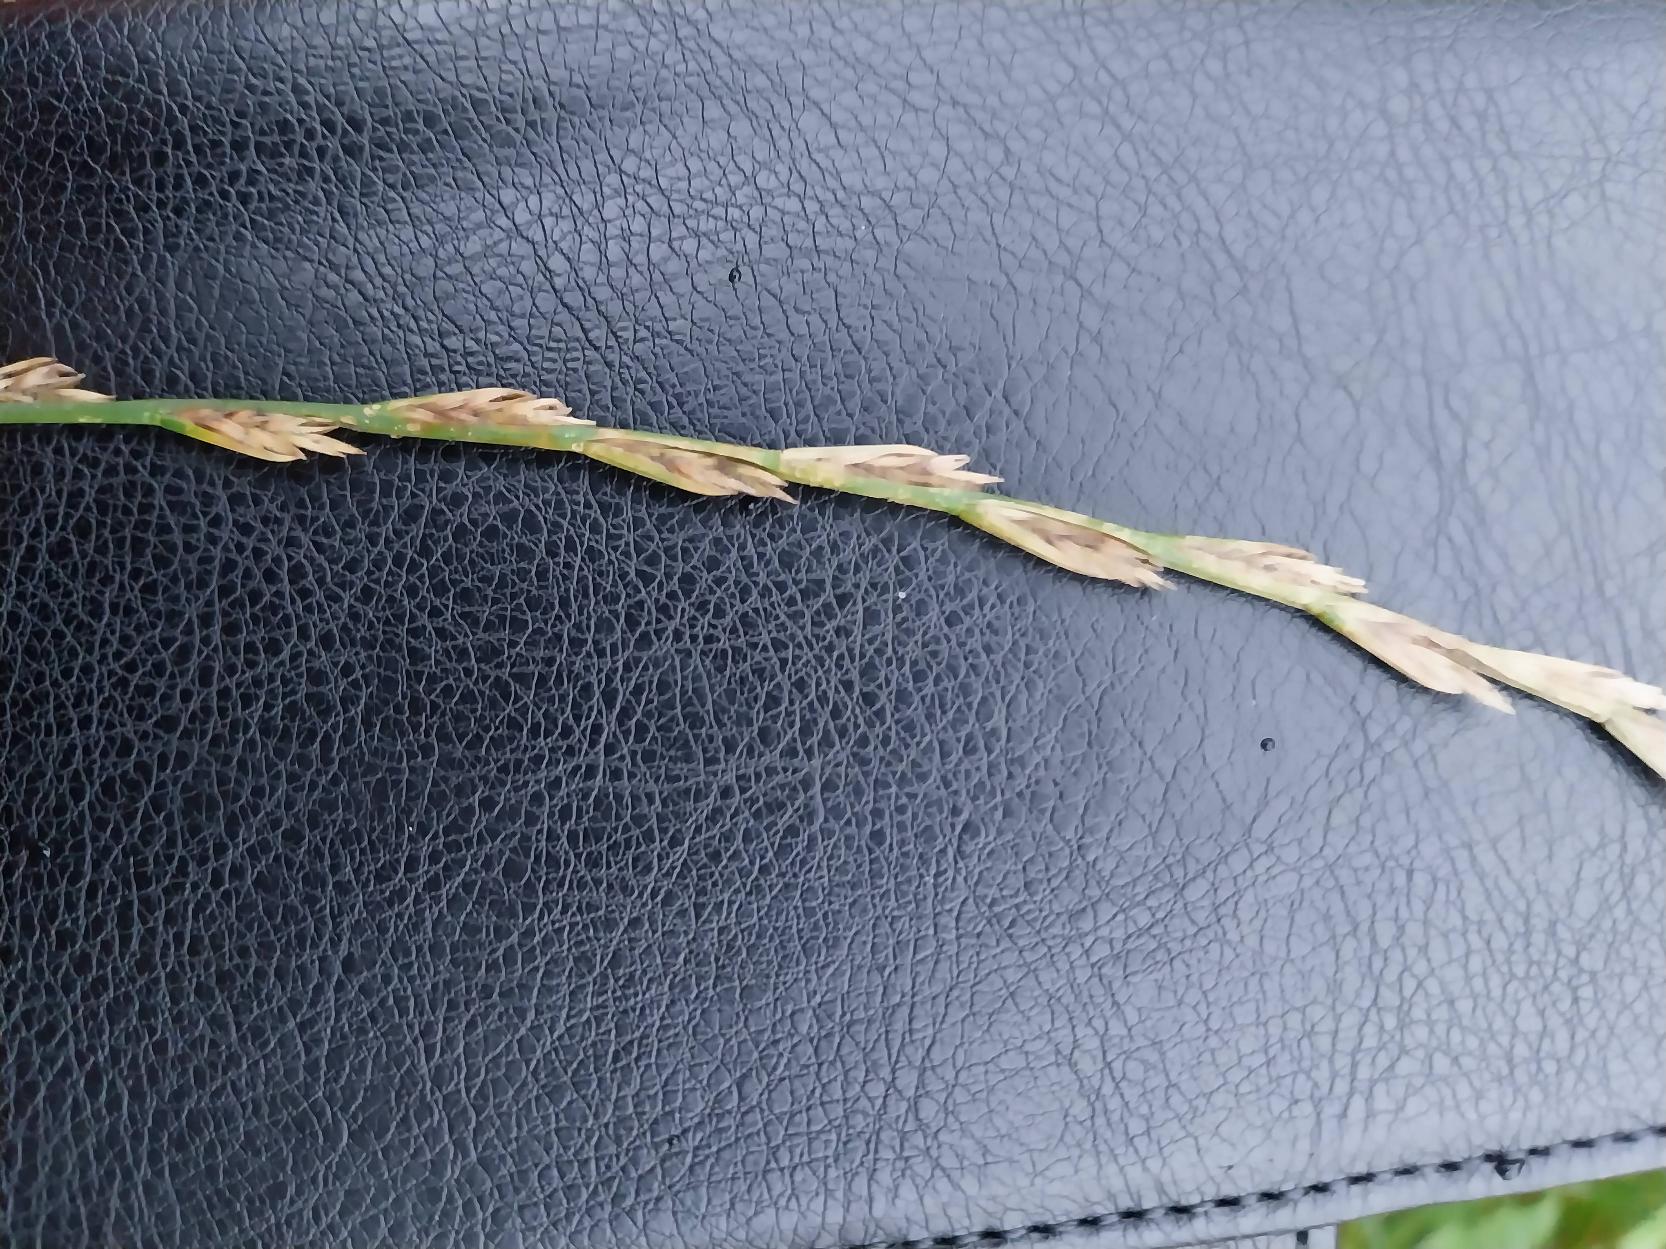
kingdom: Plantae
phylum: Tracheophyta
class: Liliopsida
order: Poales
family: Poaceae
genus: Lolium
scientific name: Lolium perenne
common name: Almindelig rajgræs
